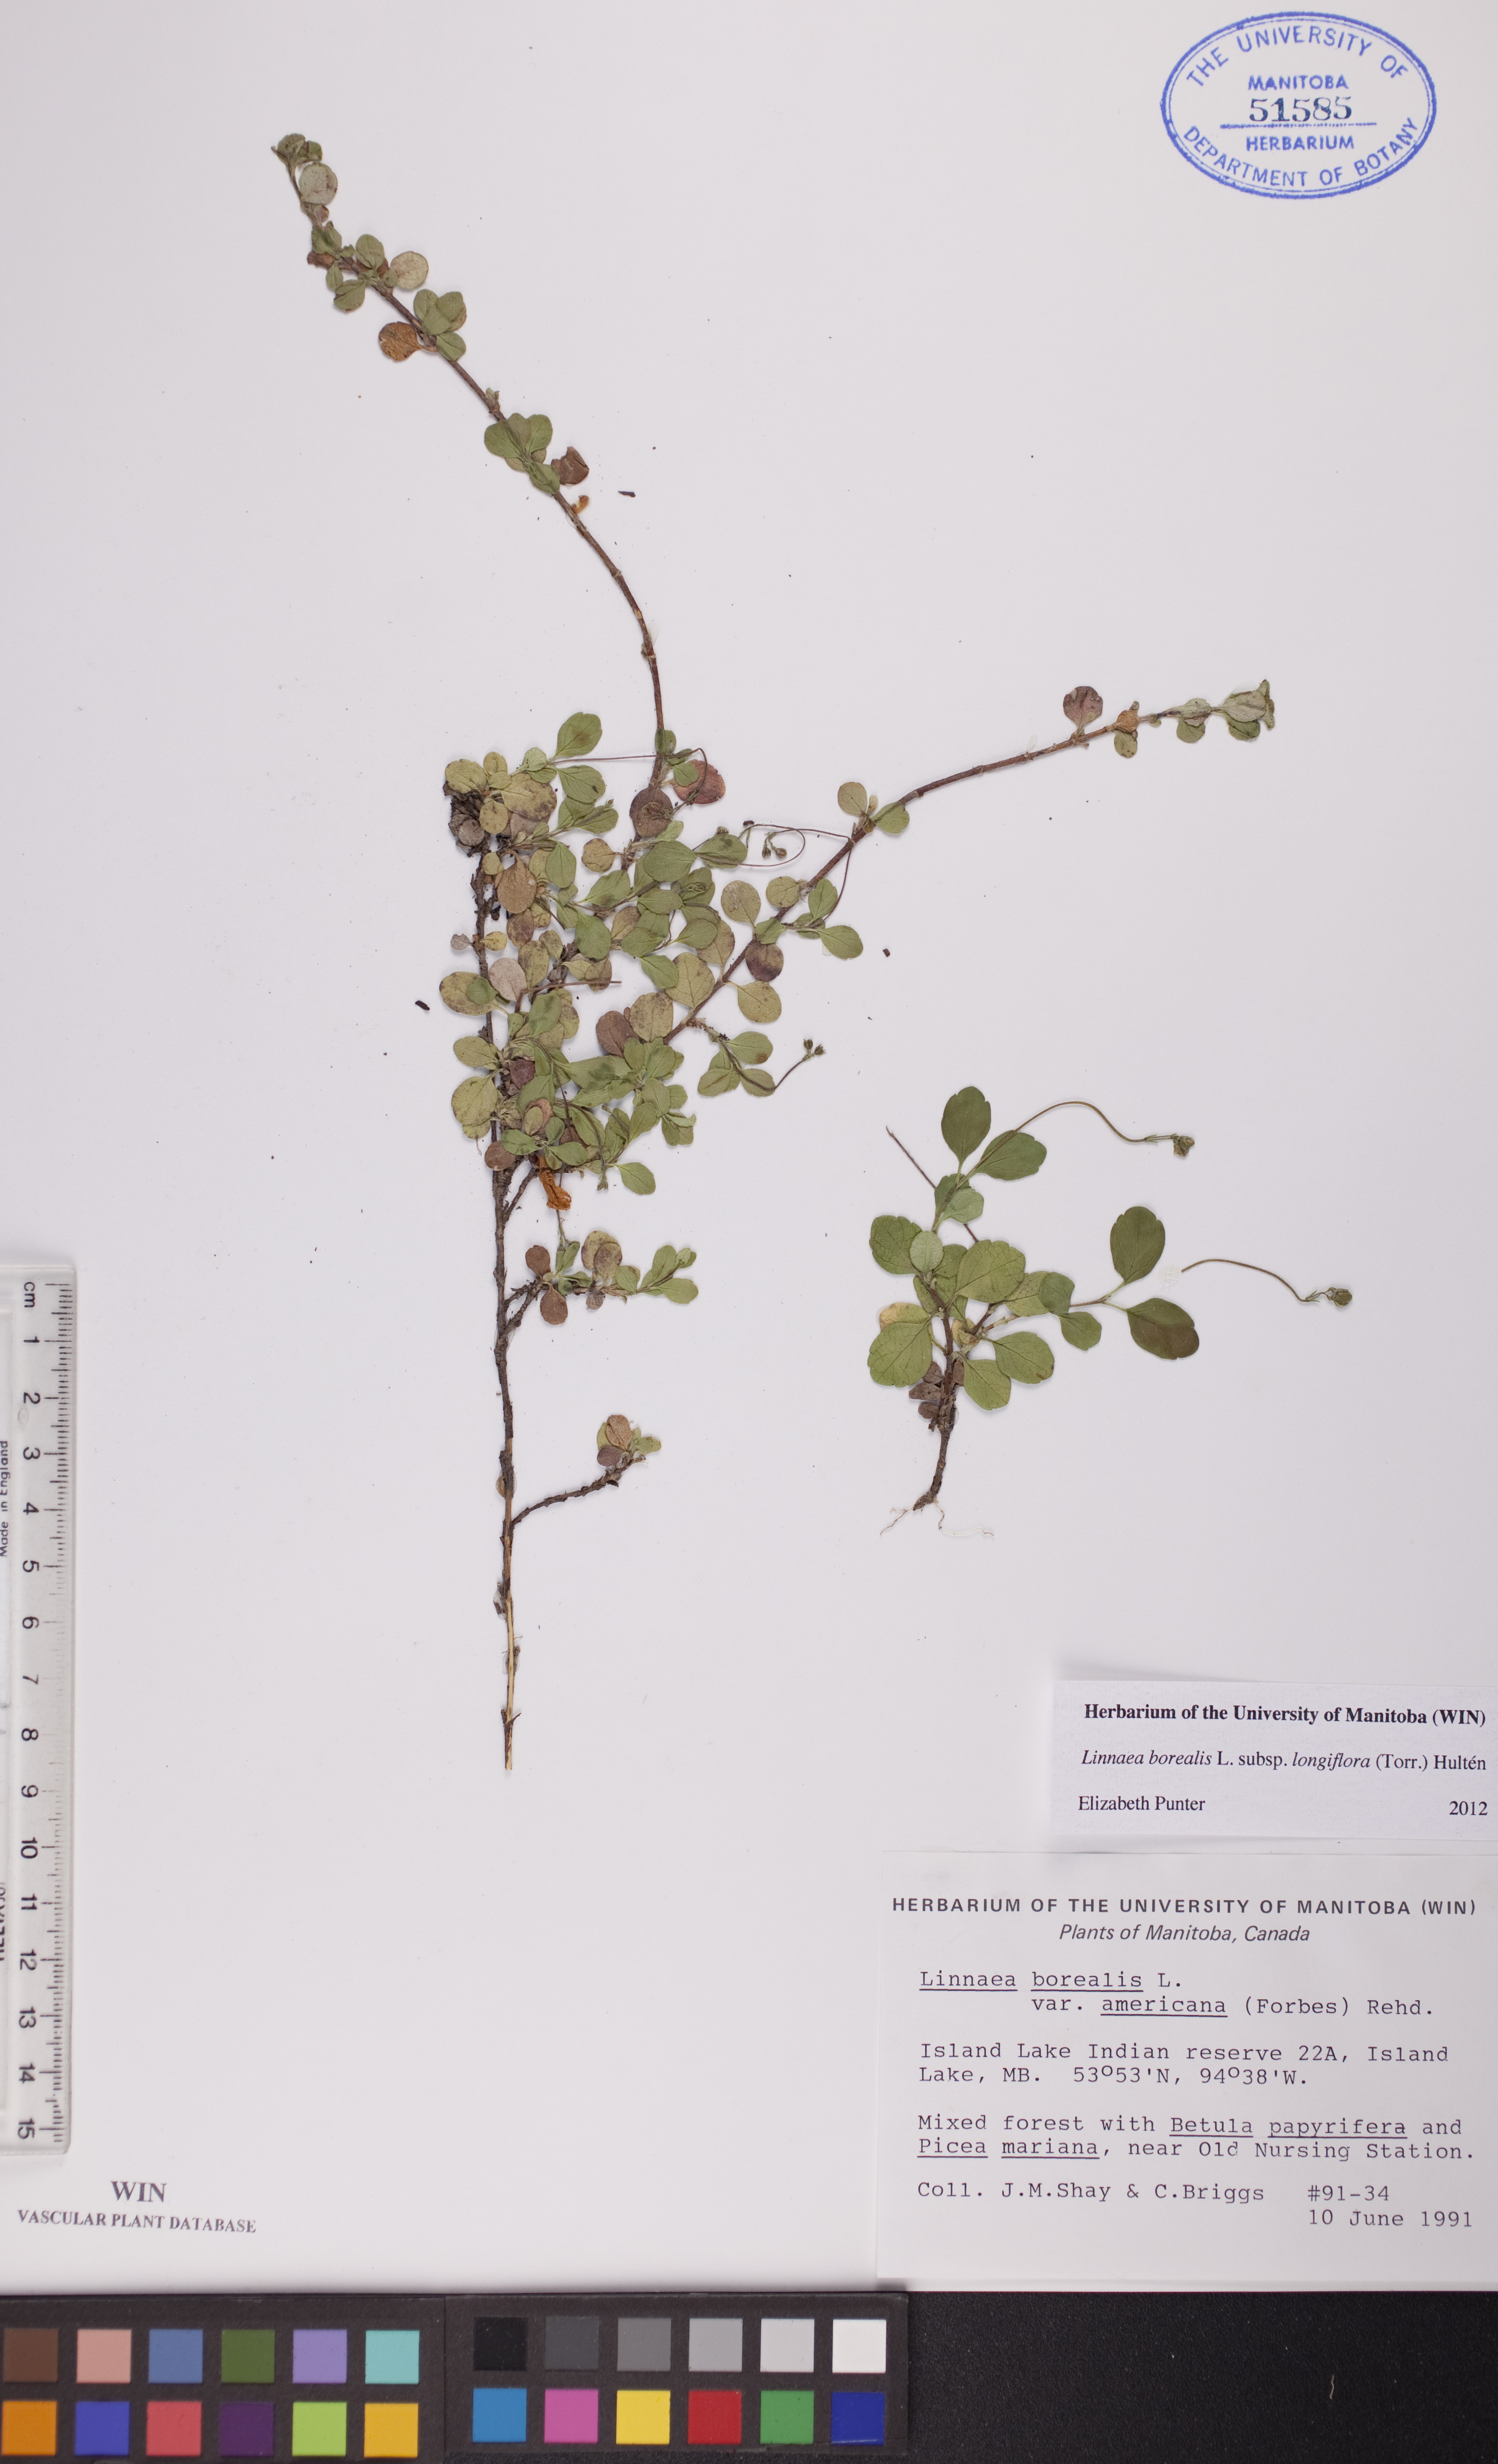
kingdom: Plantae
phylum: Tracheophyta
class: Magnoliopsida
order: Dipsacales
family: Caprifoliaceae
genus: Linnaea
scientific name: Linnaea borealis
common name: Twinflower
